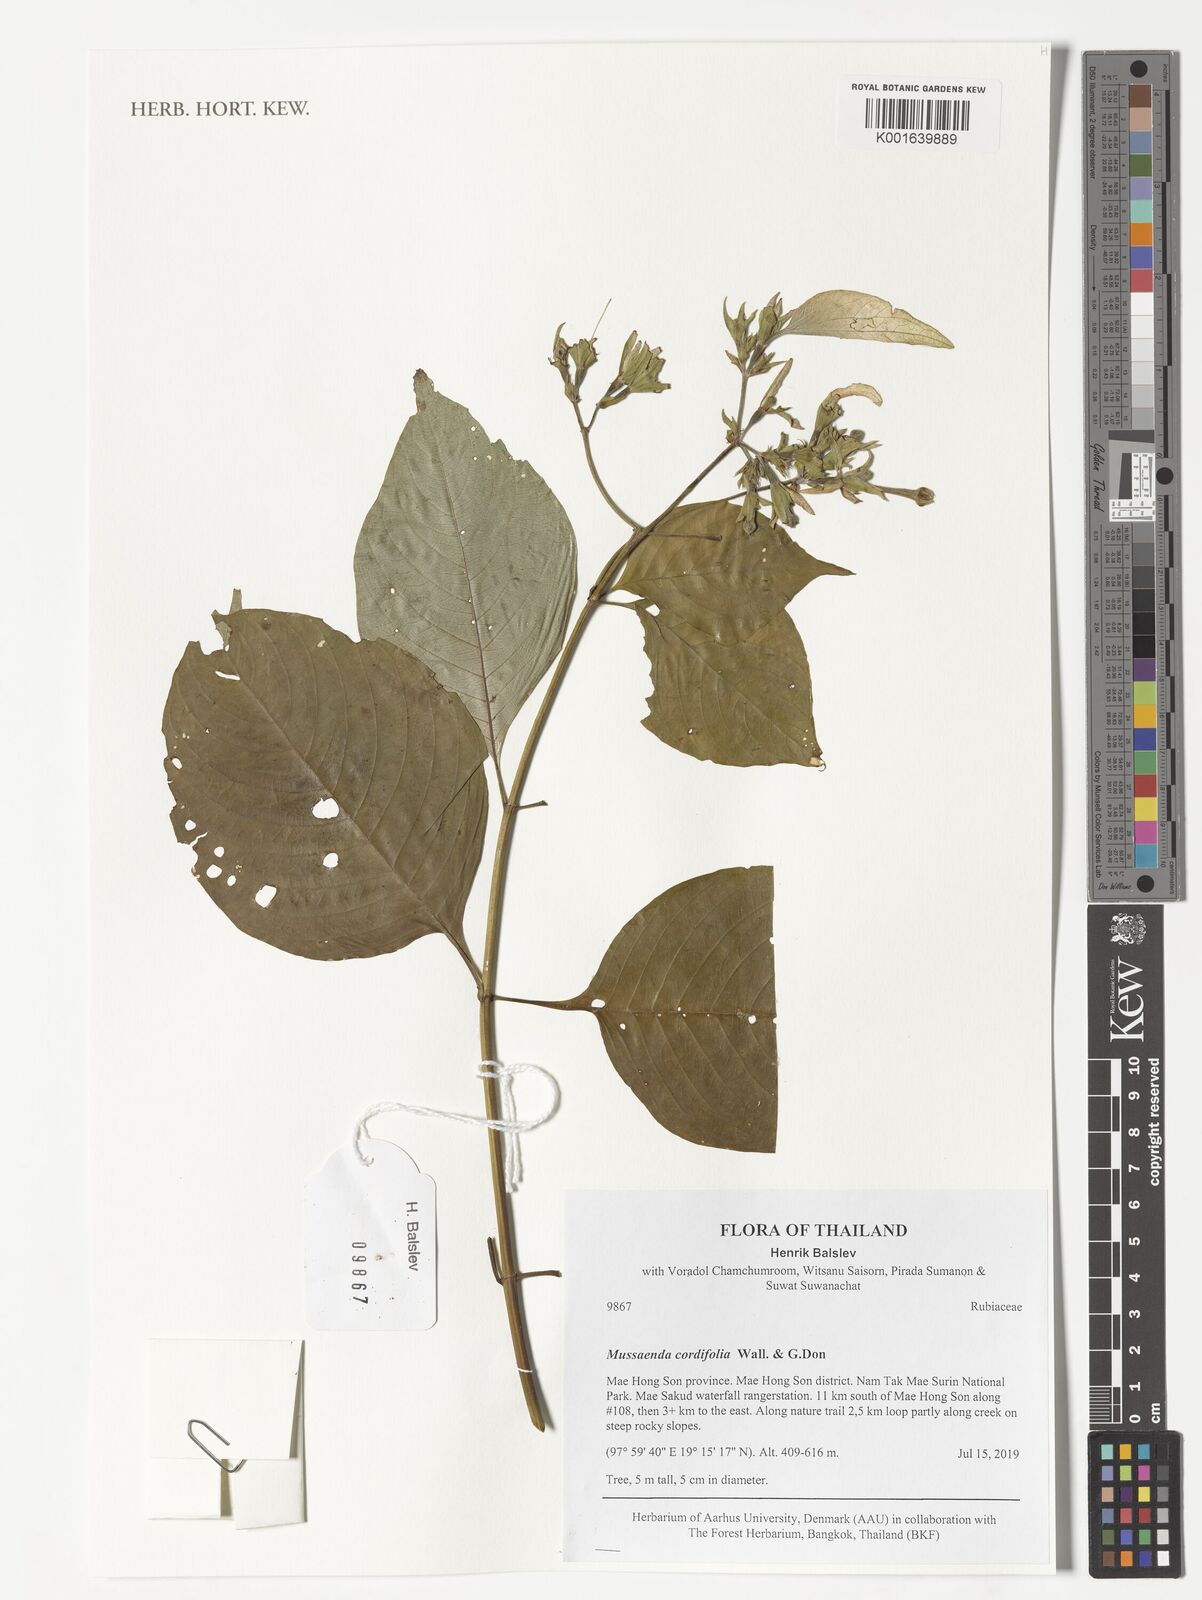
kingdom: Plantae
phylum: Tracheophyta
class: Magnoliopsida
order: Gentianales
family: Rubiaceae
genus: Mussaenda
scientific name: Mussaenda cordifolia
